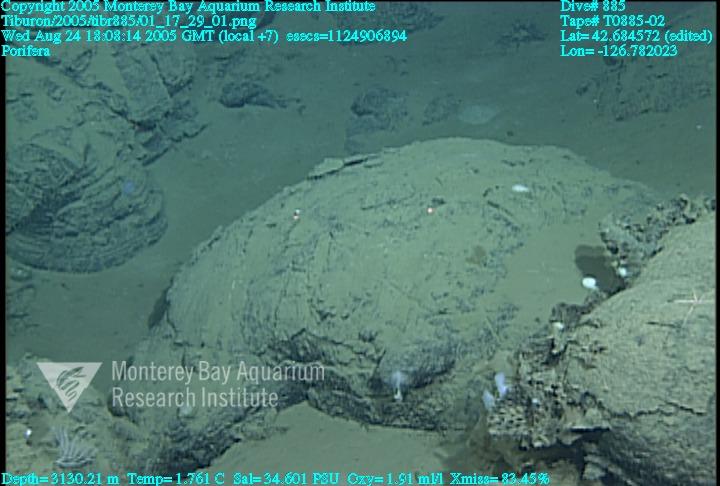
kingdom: Animalia
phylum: Porifera
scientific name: Porifera
